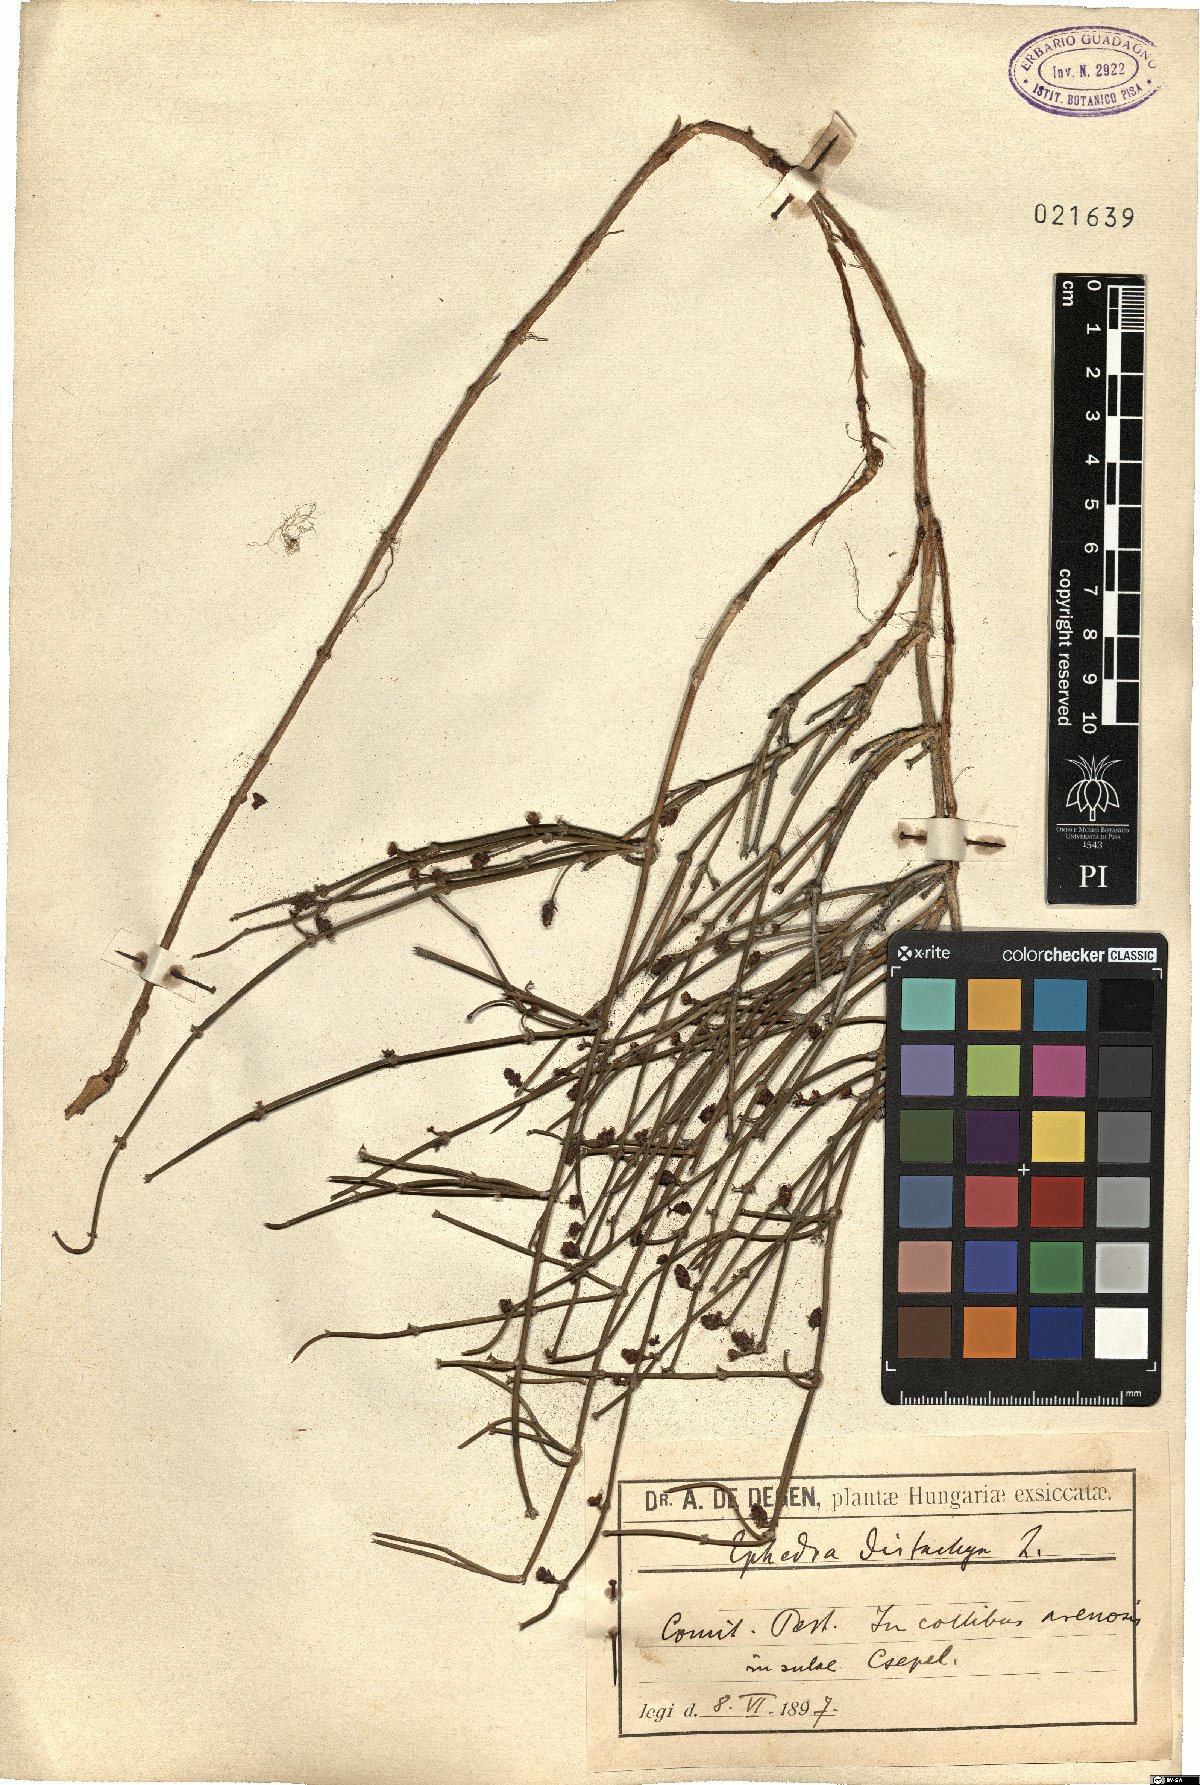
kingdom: Plantae
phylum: Tracheophyta
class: Gnetopsida
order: Ephedrales
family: Ephedraceae
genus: Ephedra
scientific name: Ephedra distachya
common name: Sea grape
